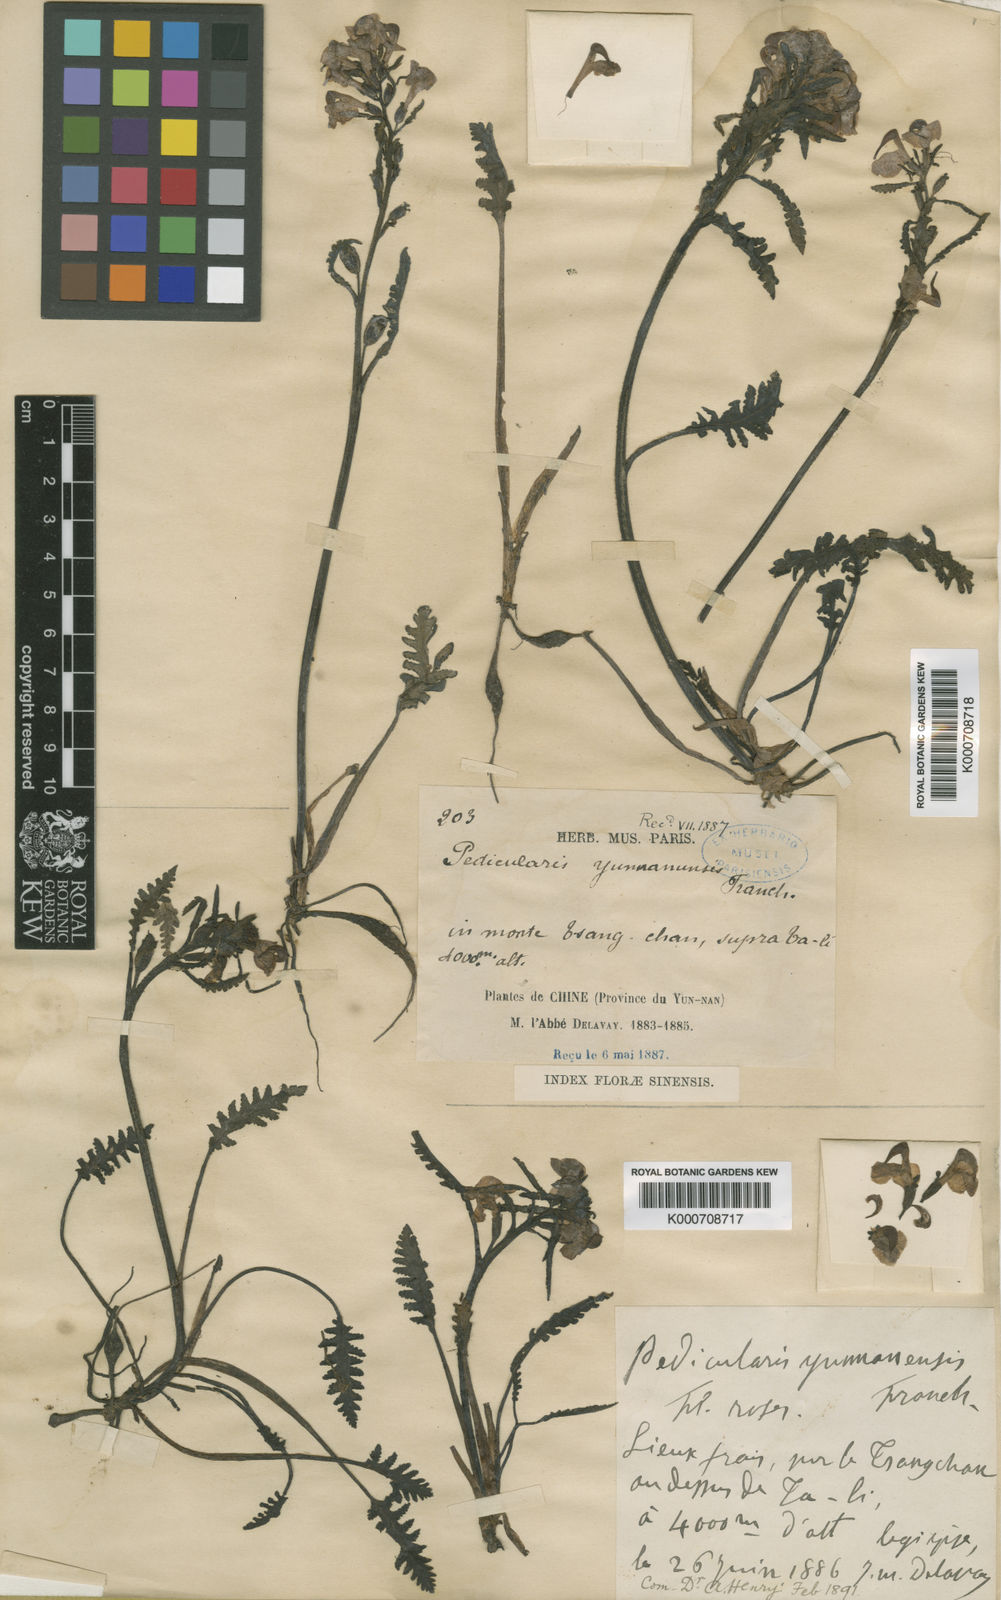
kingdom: Plantae
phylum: Tracheophyta
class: Magnoliopsida
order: Lamiales
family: Orobanchaceae
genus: Pedicularis
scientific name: Pedicularis yunnanensis
